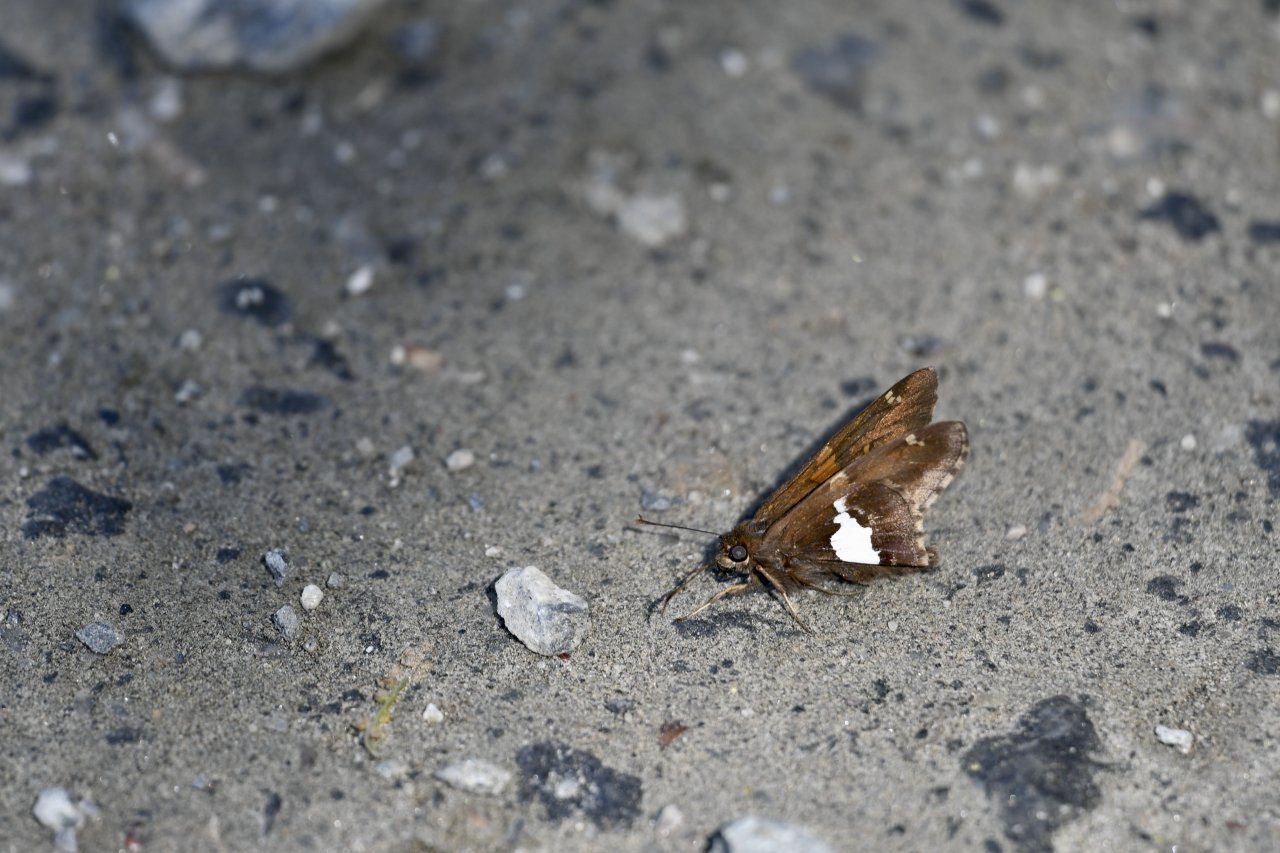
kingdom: Animalia
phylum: Arthropoda
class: Insecta
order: Lepidoptera
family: Hesperiidae
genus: Epargyreus
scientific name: Epargyreus clarus
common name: Silver-spotted Skipper
